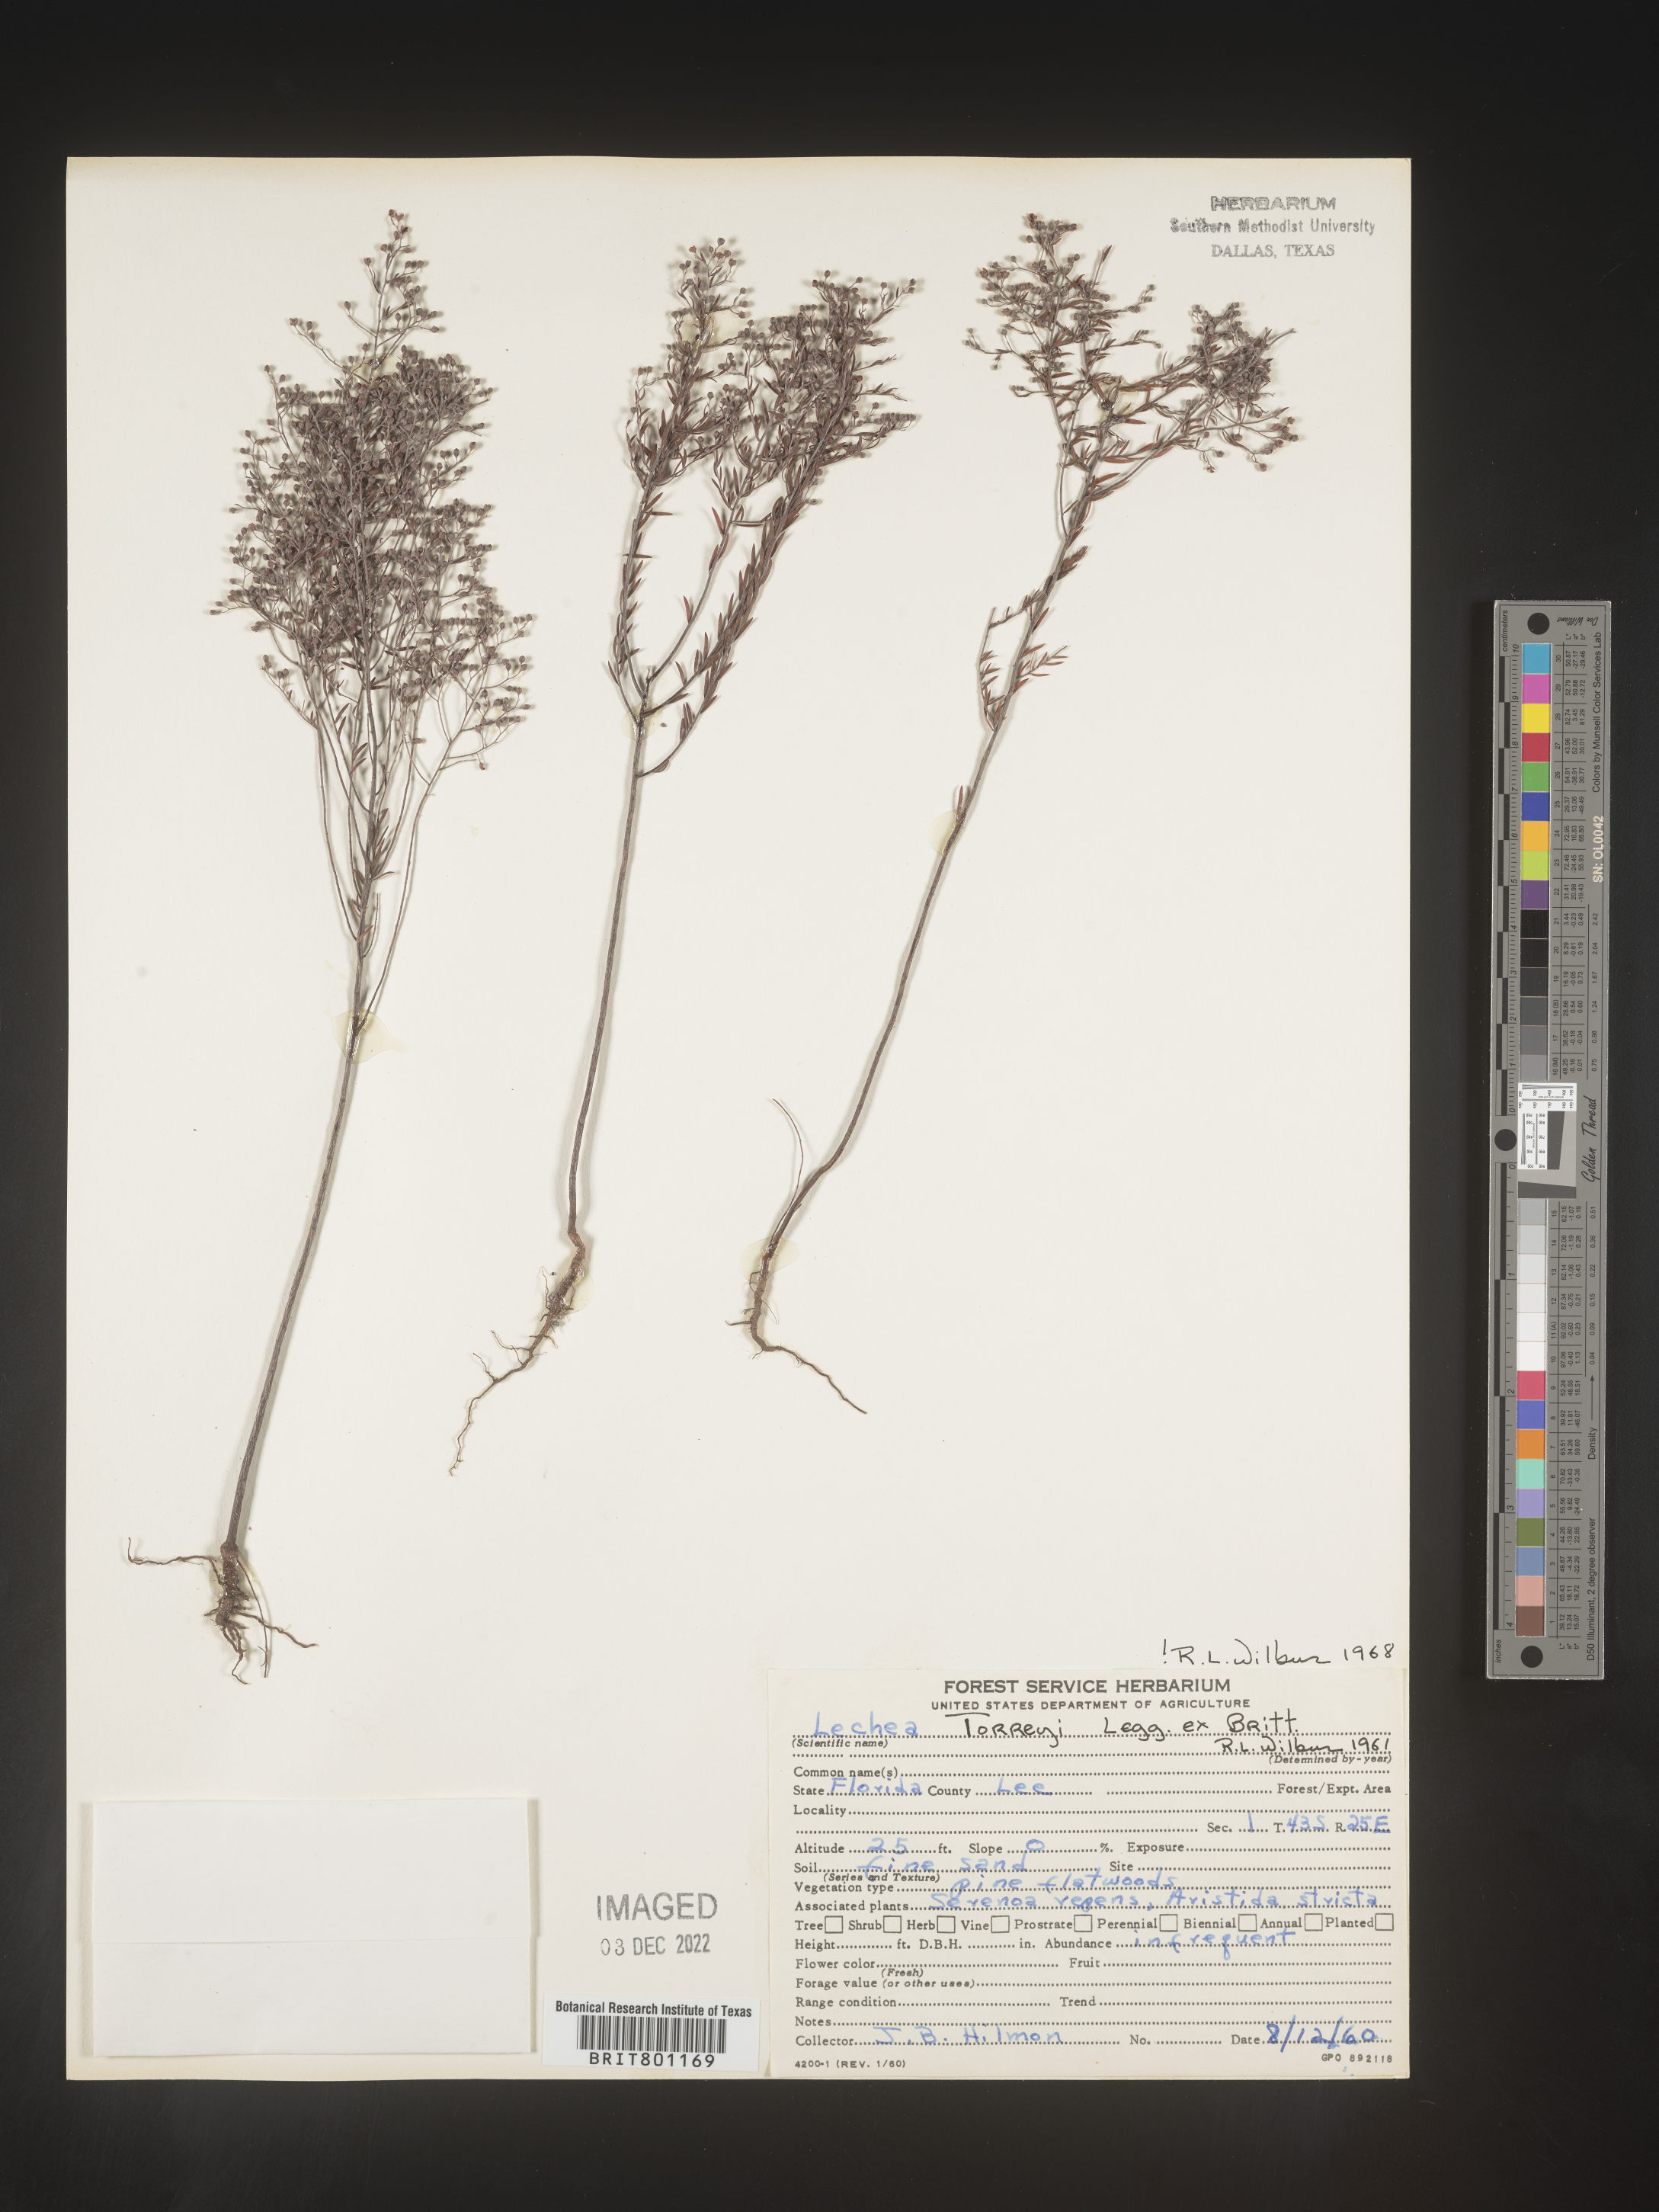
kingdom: Plantae
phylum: Tracheophyta
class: Magnoliopsida
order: Malvales
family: Cistaceae
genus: Lechea
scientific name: Lechea torreyi
